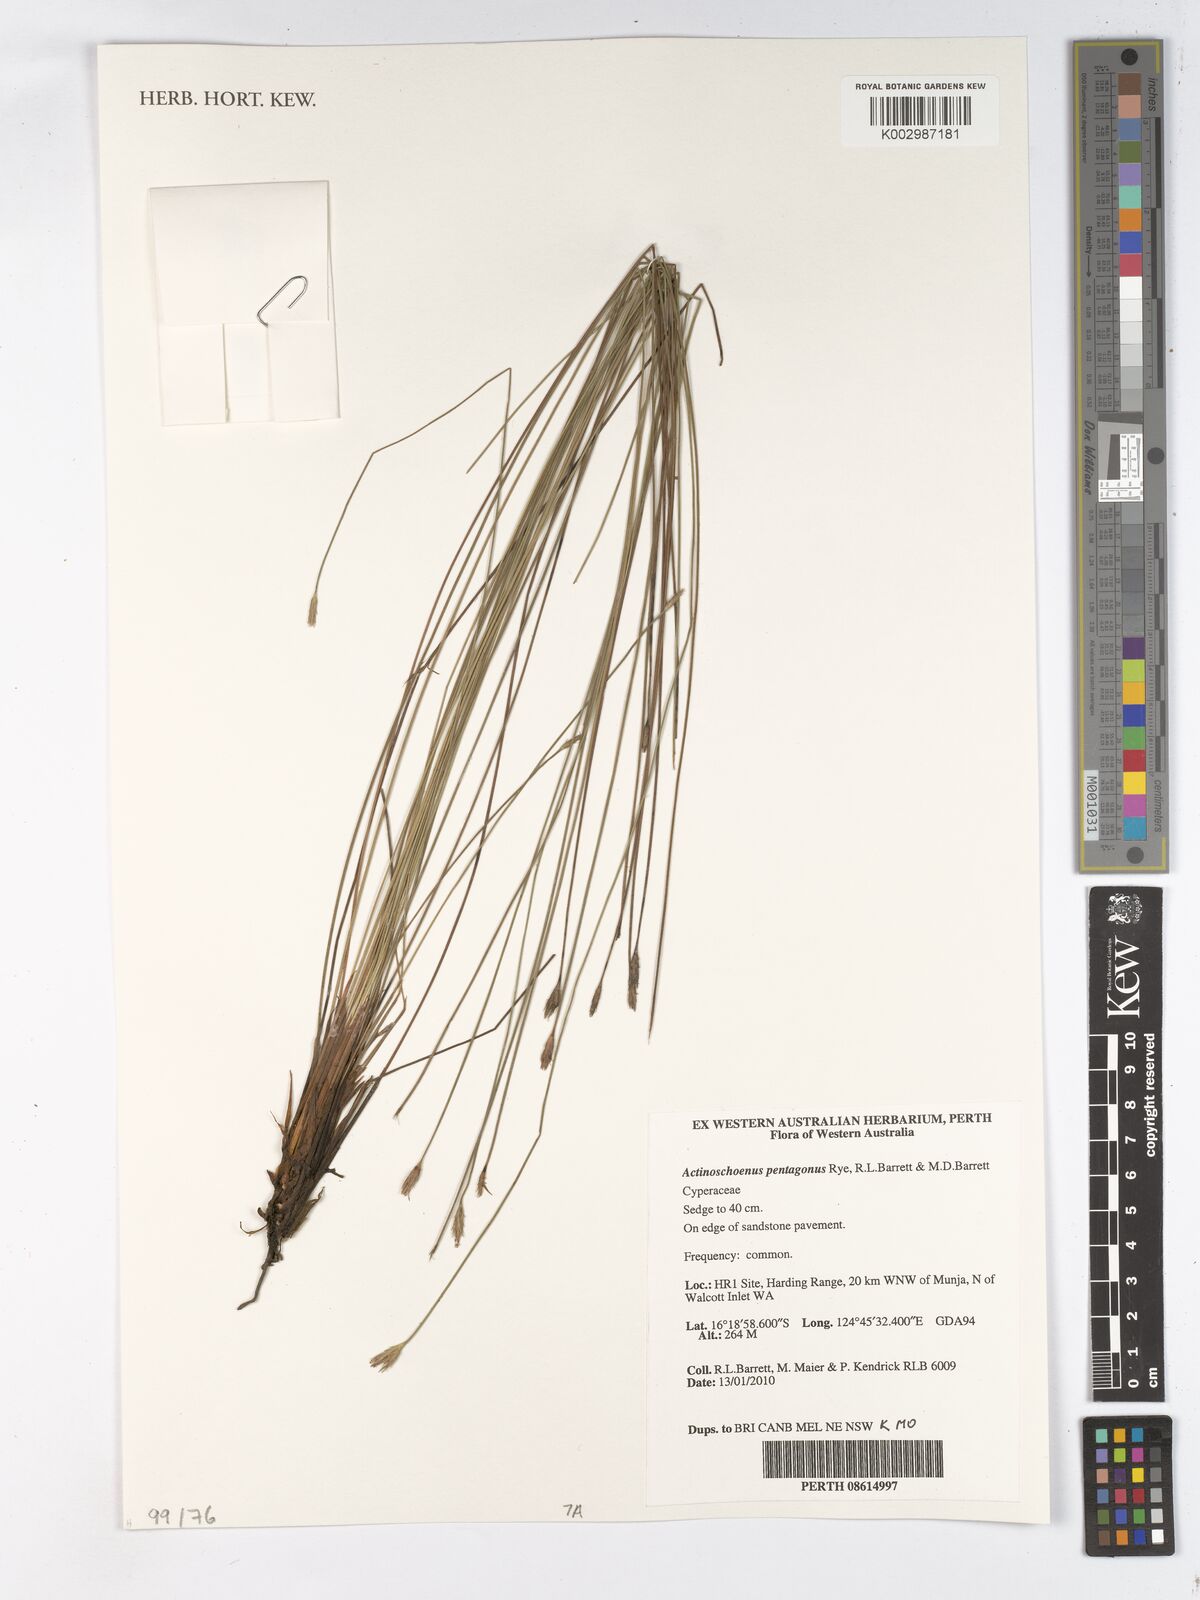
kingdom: Plantae
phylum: Tracheophyta
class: Liliopsida
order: Poales
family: Cyperaceae
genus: Scleroschoenus
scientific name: Scleroschoenus pentagonus
